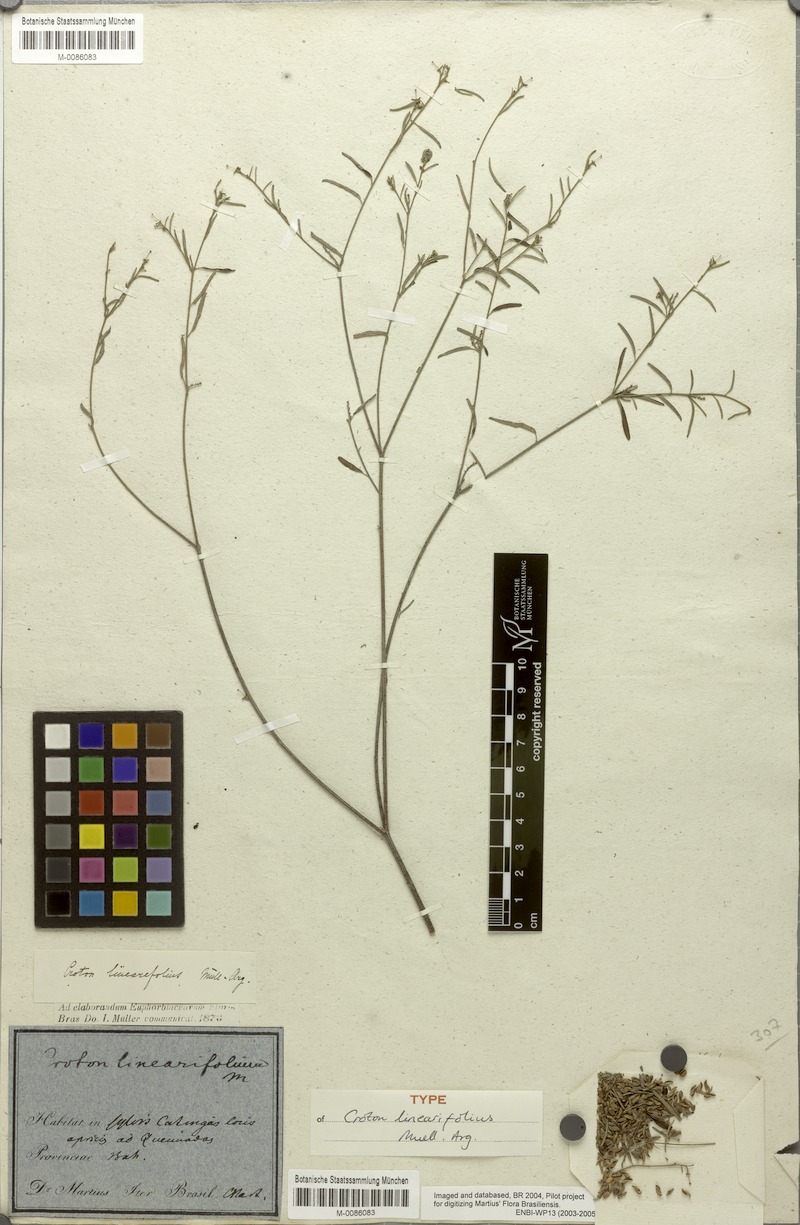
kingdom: Plantae
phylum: Tracheophyta
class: Magnoliopsida
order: Malpighiales
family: Euphorbiaceae
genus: Croton
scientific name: Croton linearifolius
